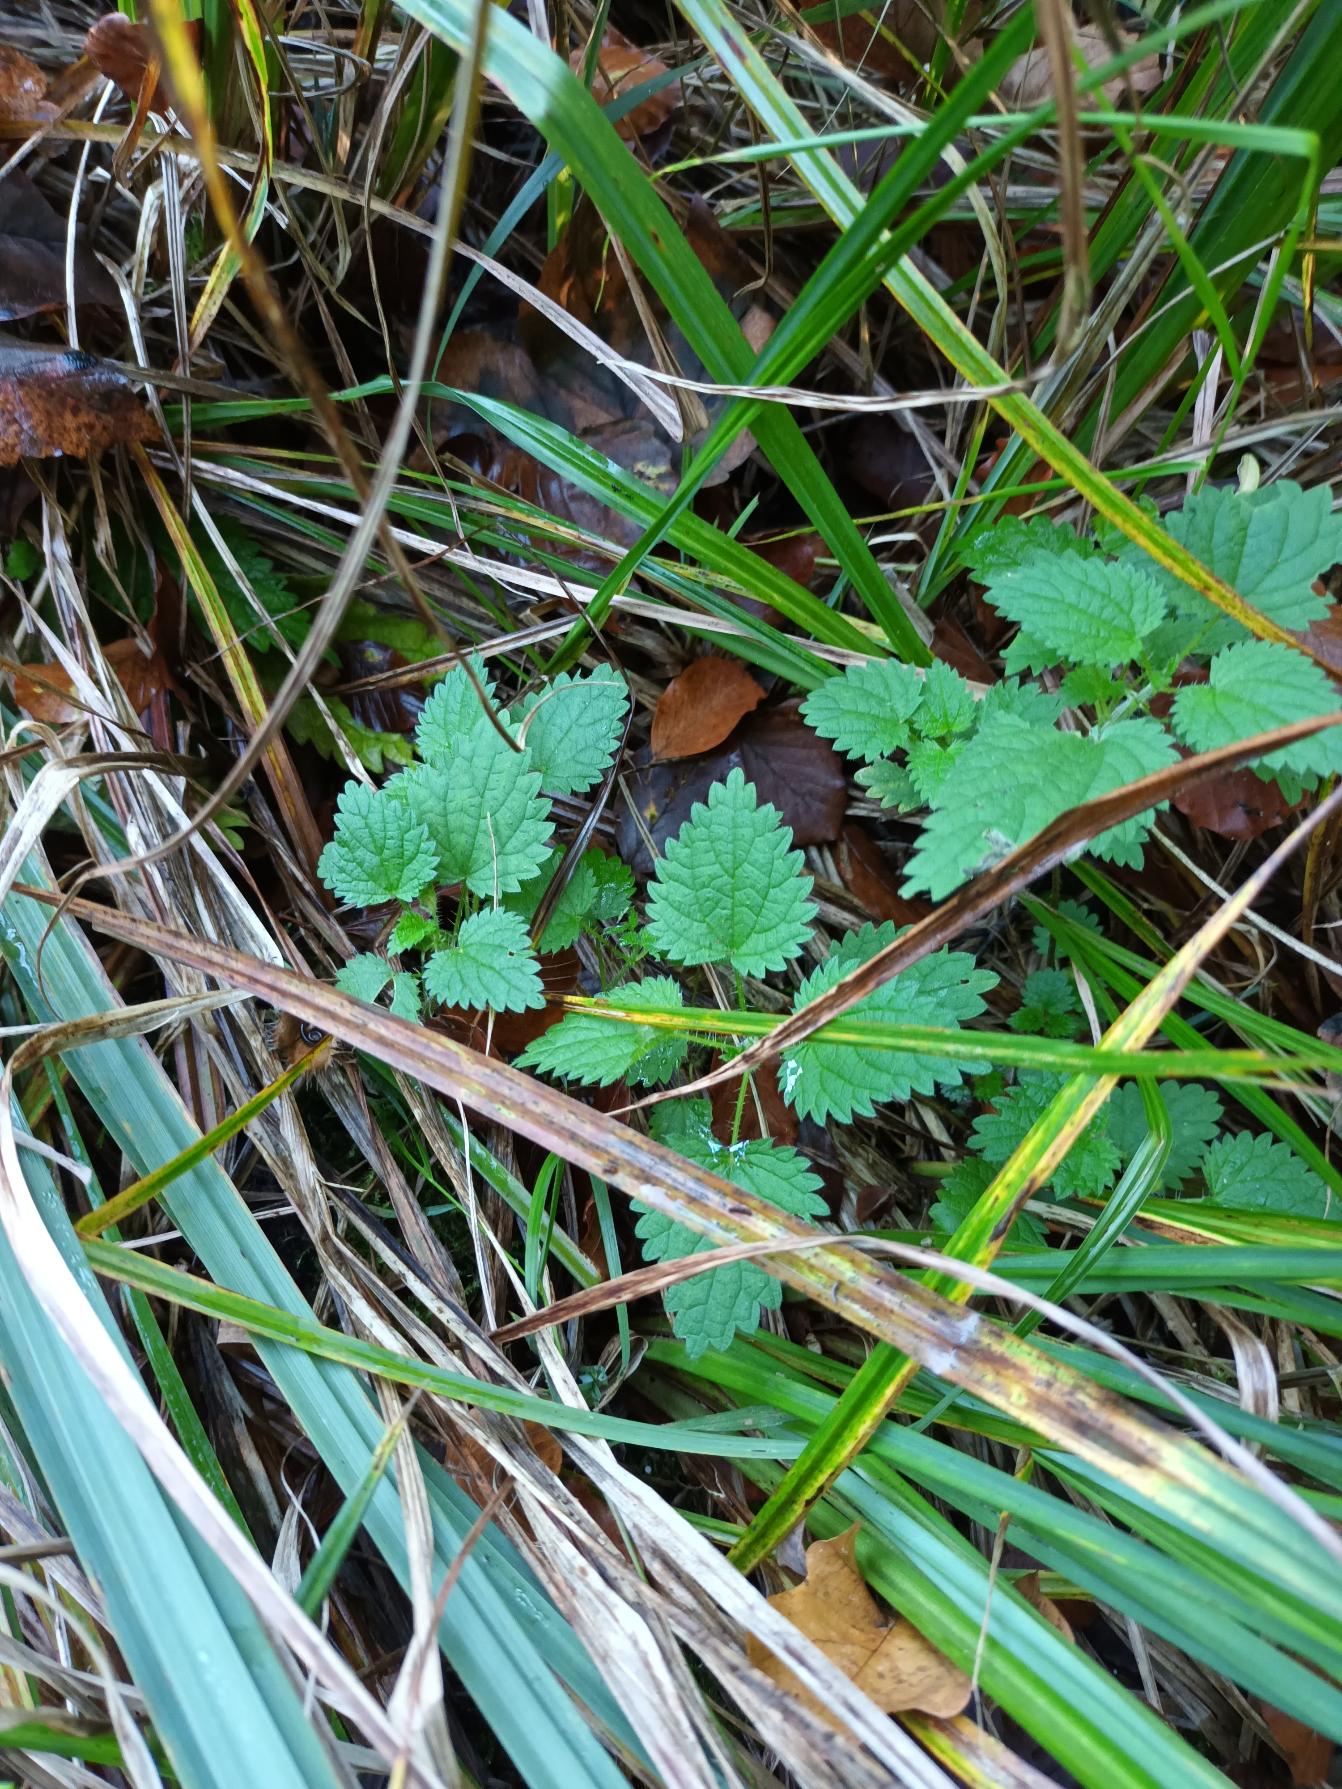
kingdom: Plantae
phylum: Tracheophyta
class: Magnoliopsida
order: Rosales
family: Urticaceae
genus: Urtica
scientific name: Urtica dioica
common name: Stor nælde
